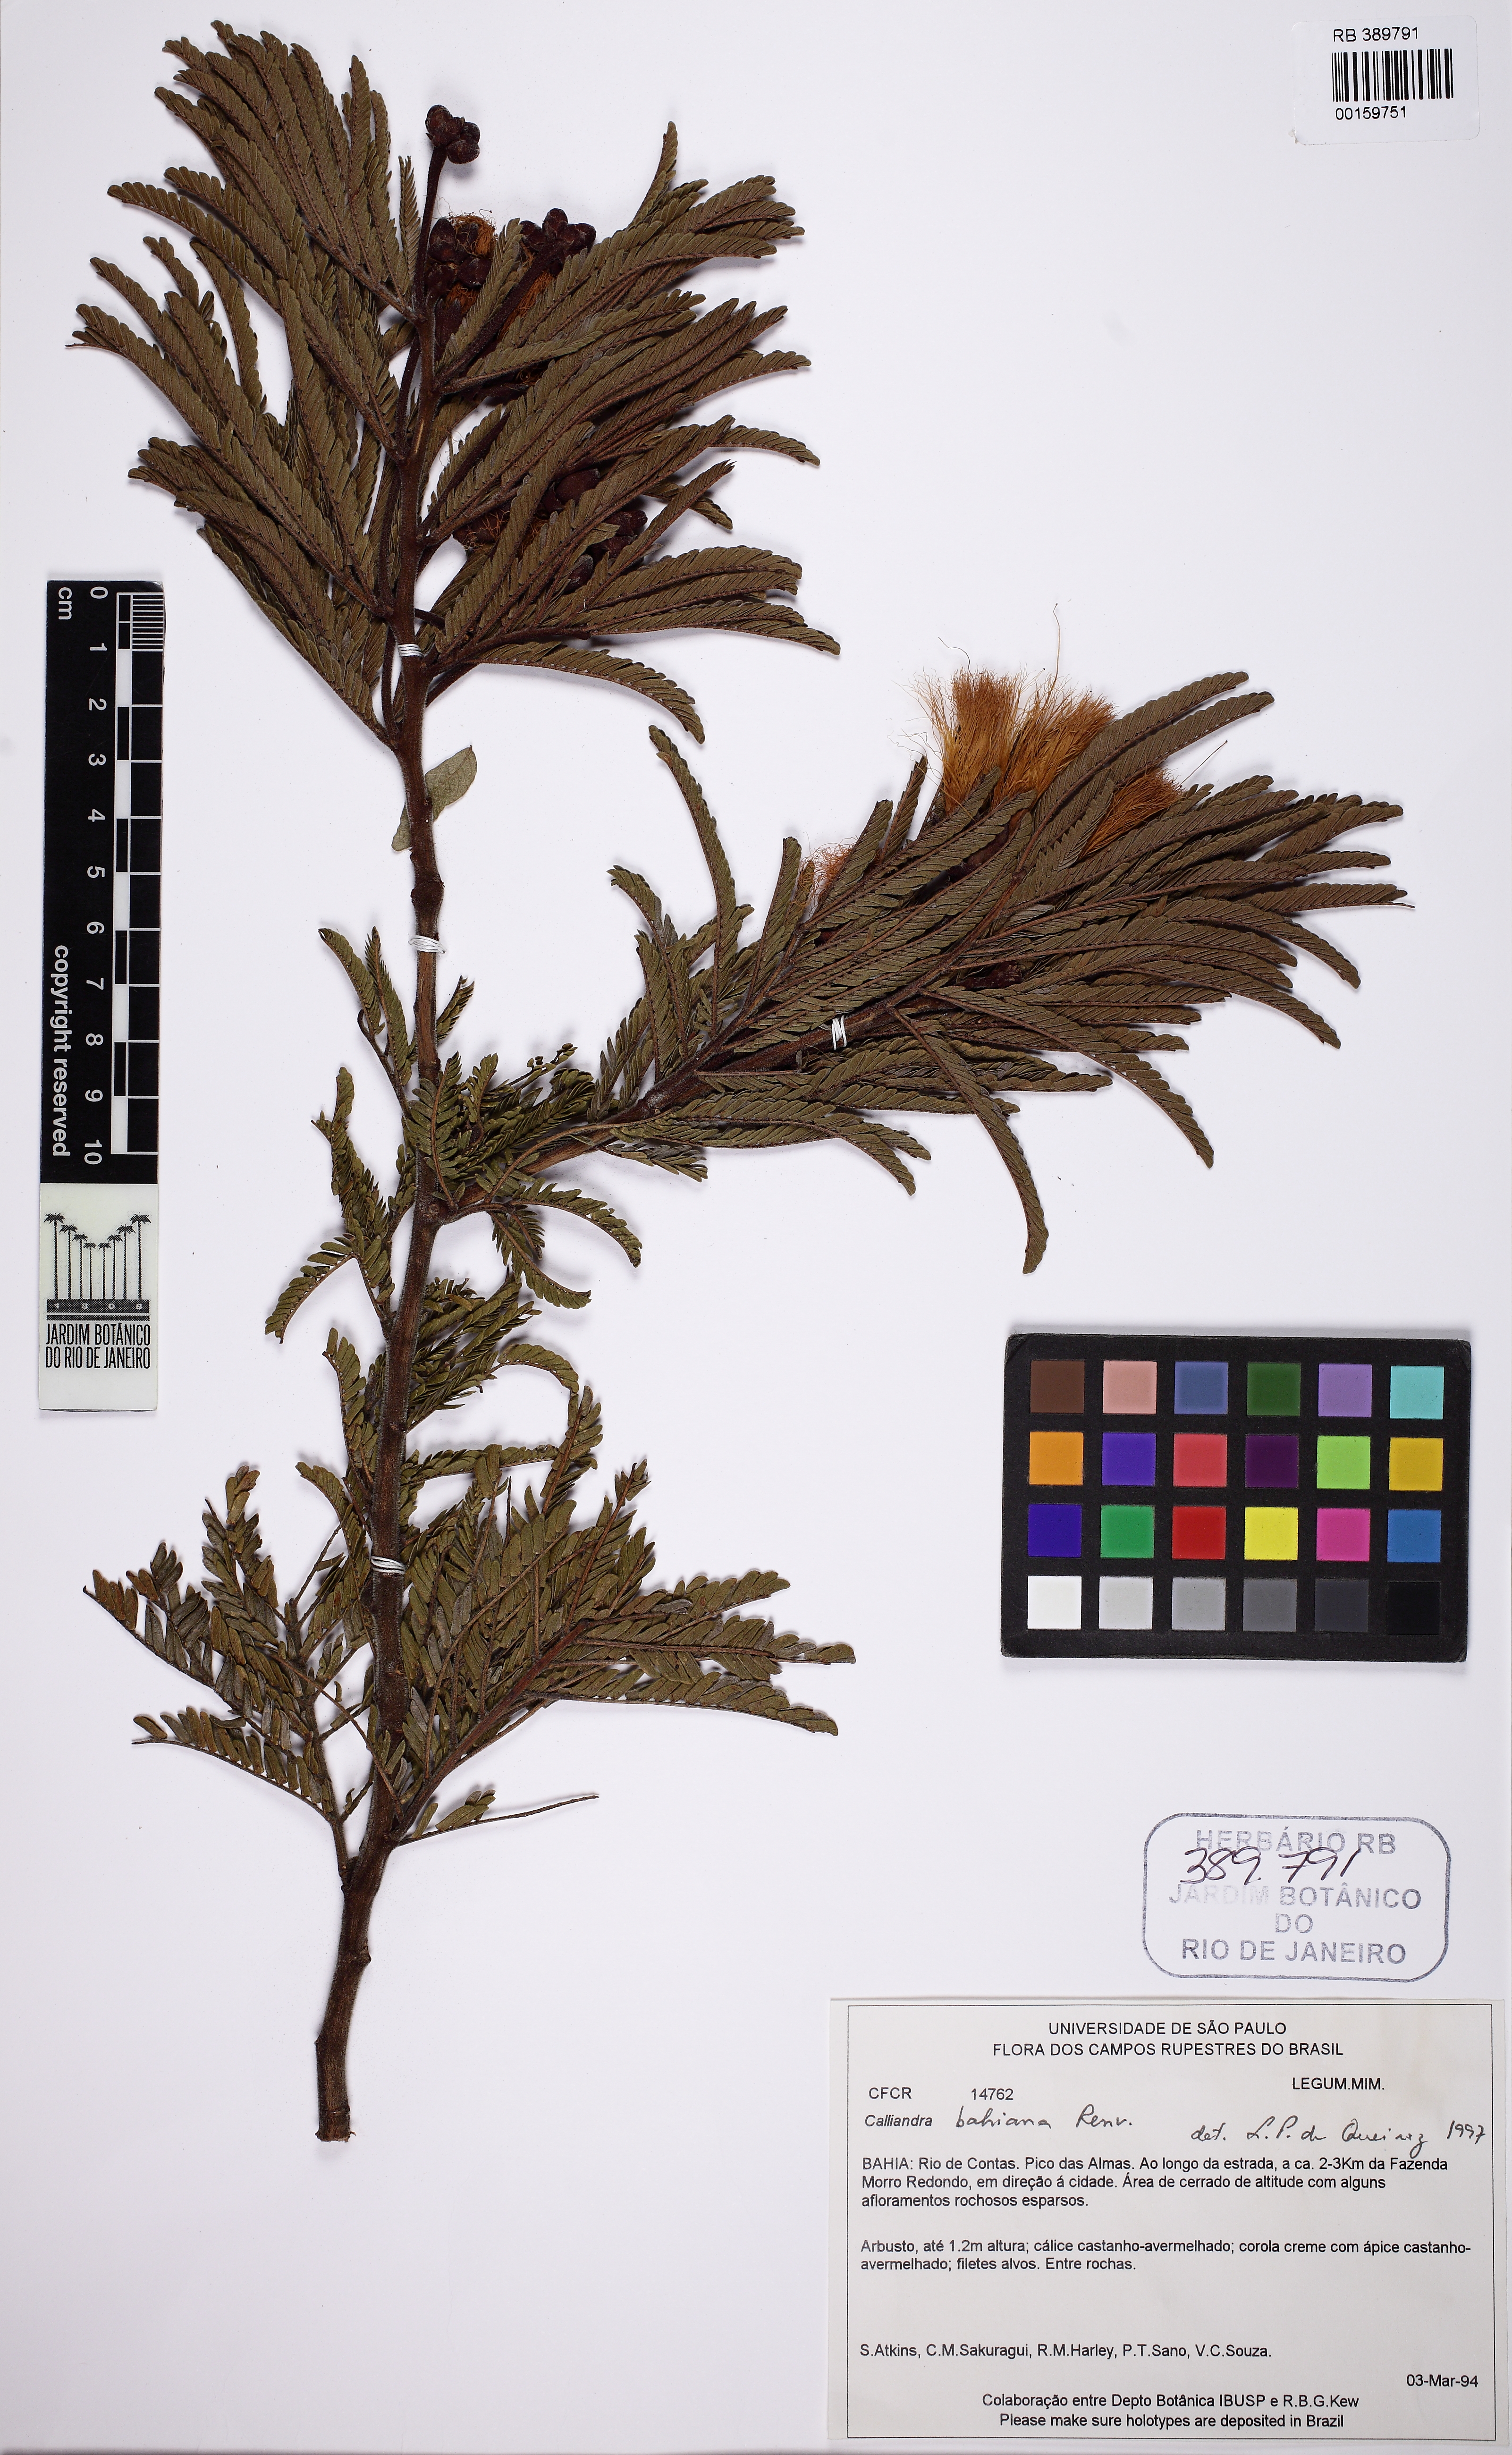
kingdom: Plantae
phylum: Tracheophyta
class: Magnoliopsida
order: Fabales
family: Fabaceae
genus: Calliandra
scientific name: Calliandra bahiana
